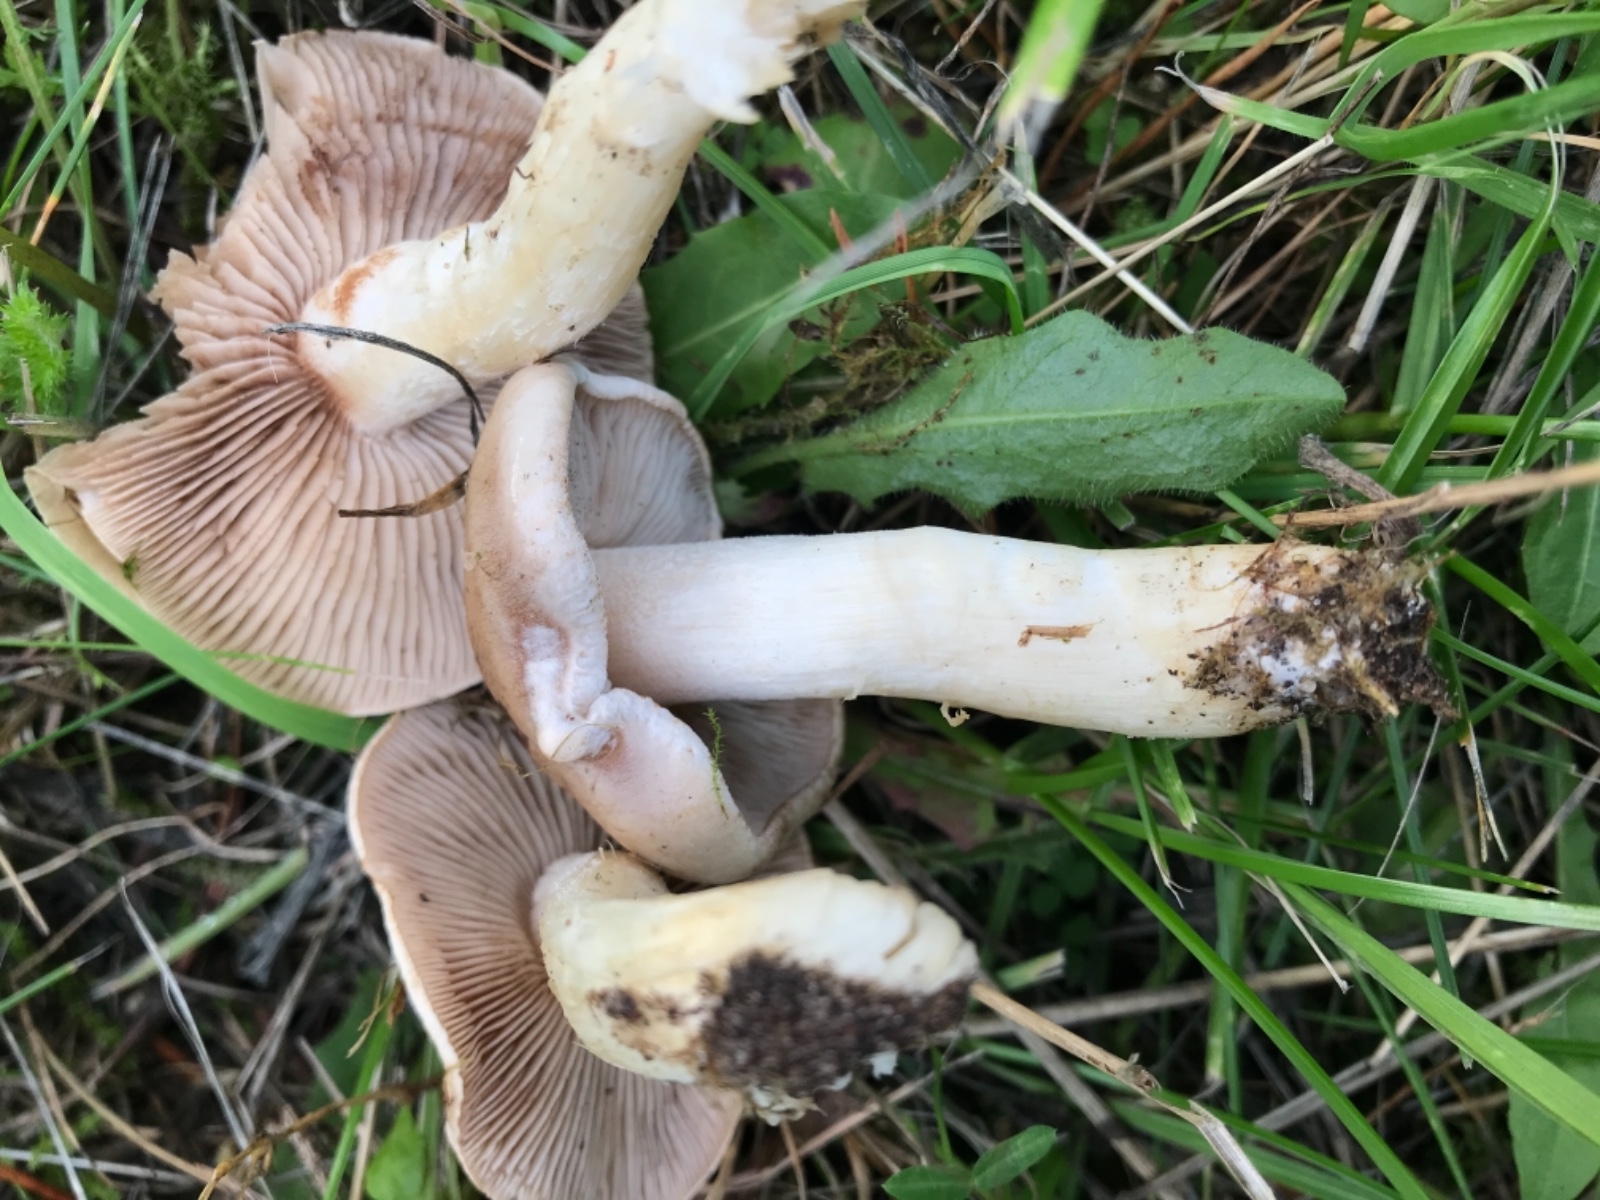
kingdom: Fungi
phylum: Basidiomycota
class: Agaricomycetes
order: Agaricales
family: Hymenogastraceae
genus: Hebeloma
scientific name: Hebeloma
